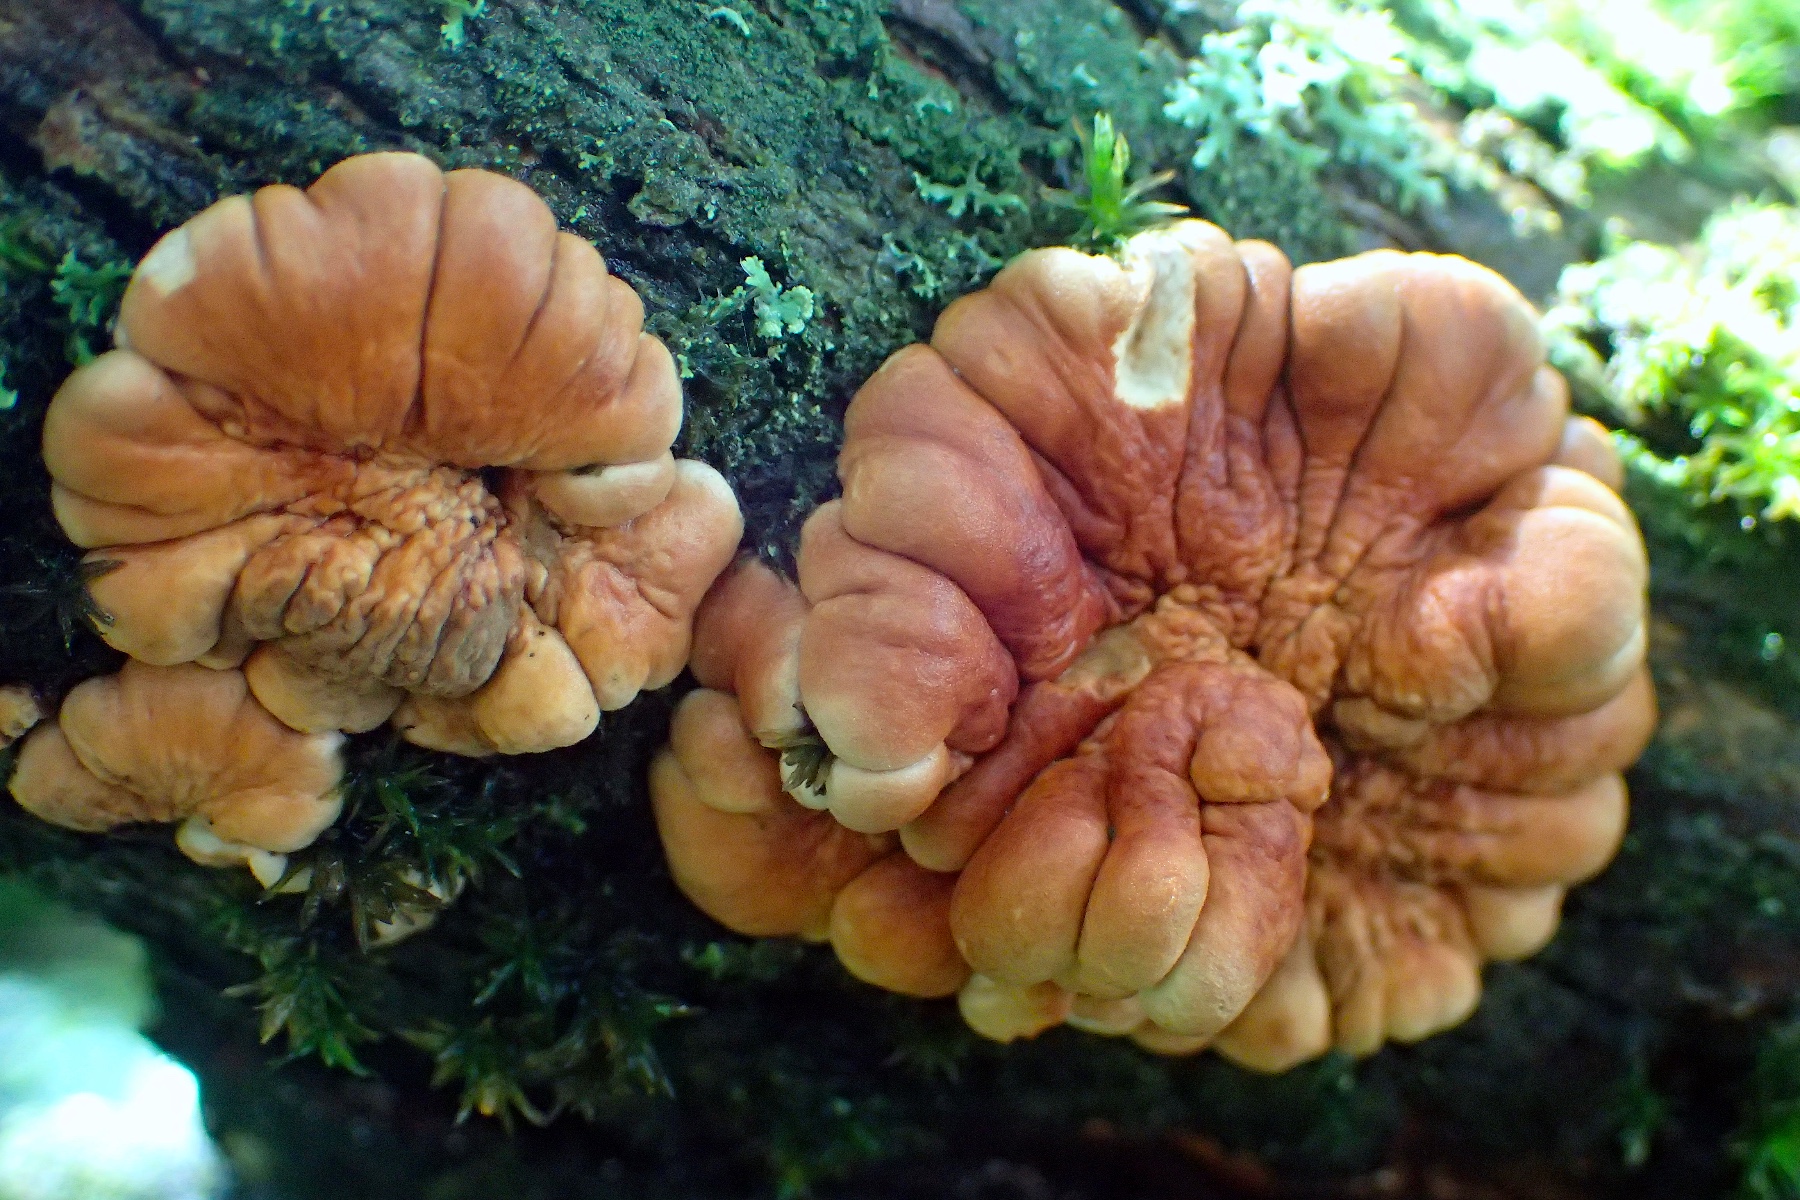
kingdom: Fungi
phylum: Ascomycota
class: Sordariomycetes
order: Hypocreales
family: Hypocreaceae
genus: Hypocreopsis
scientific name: Hypocreopsis lichenoides
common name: pilfinger
